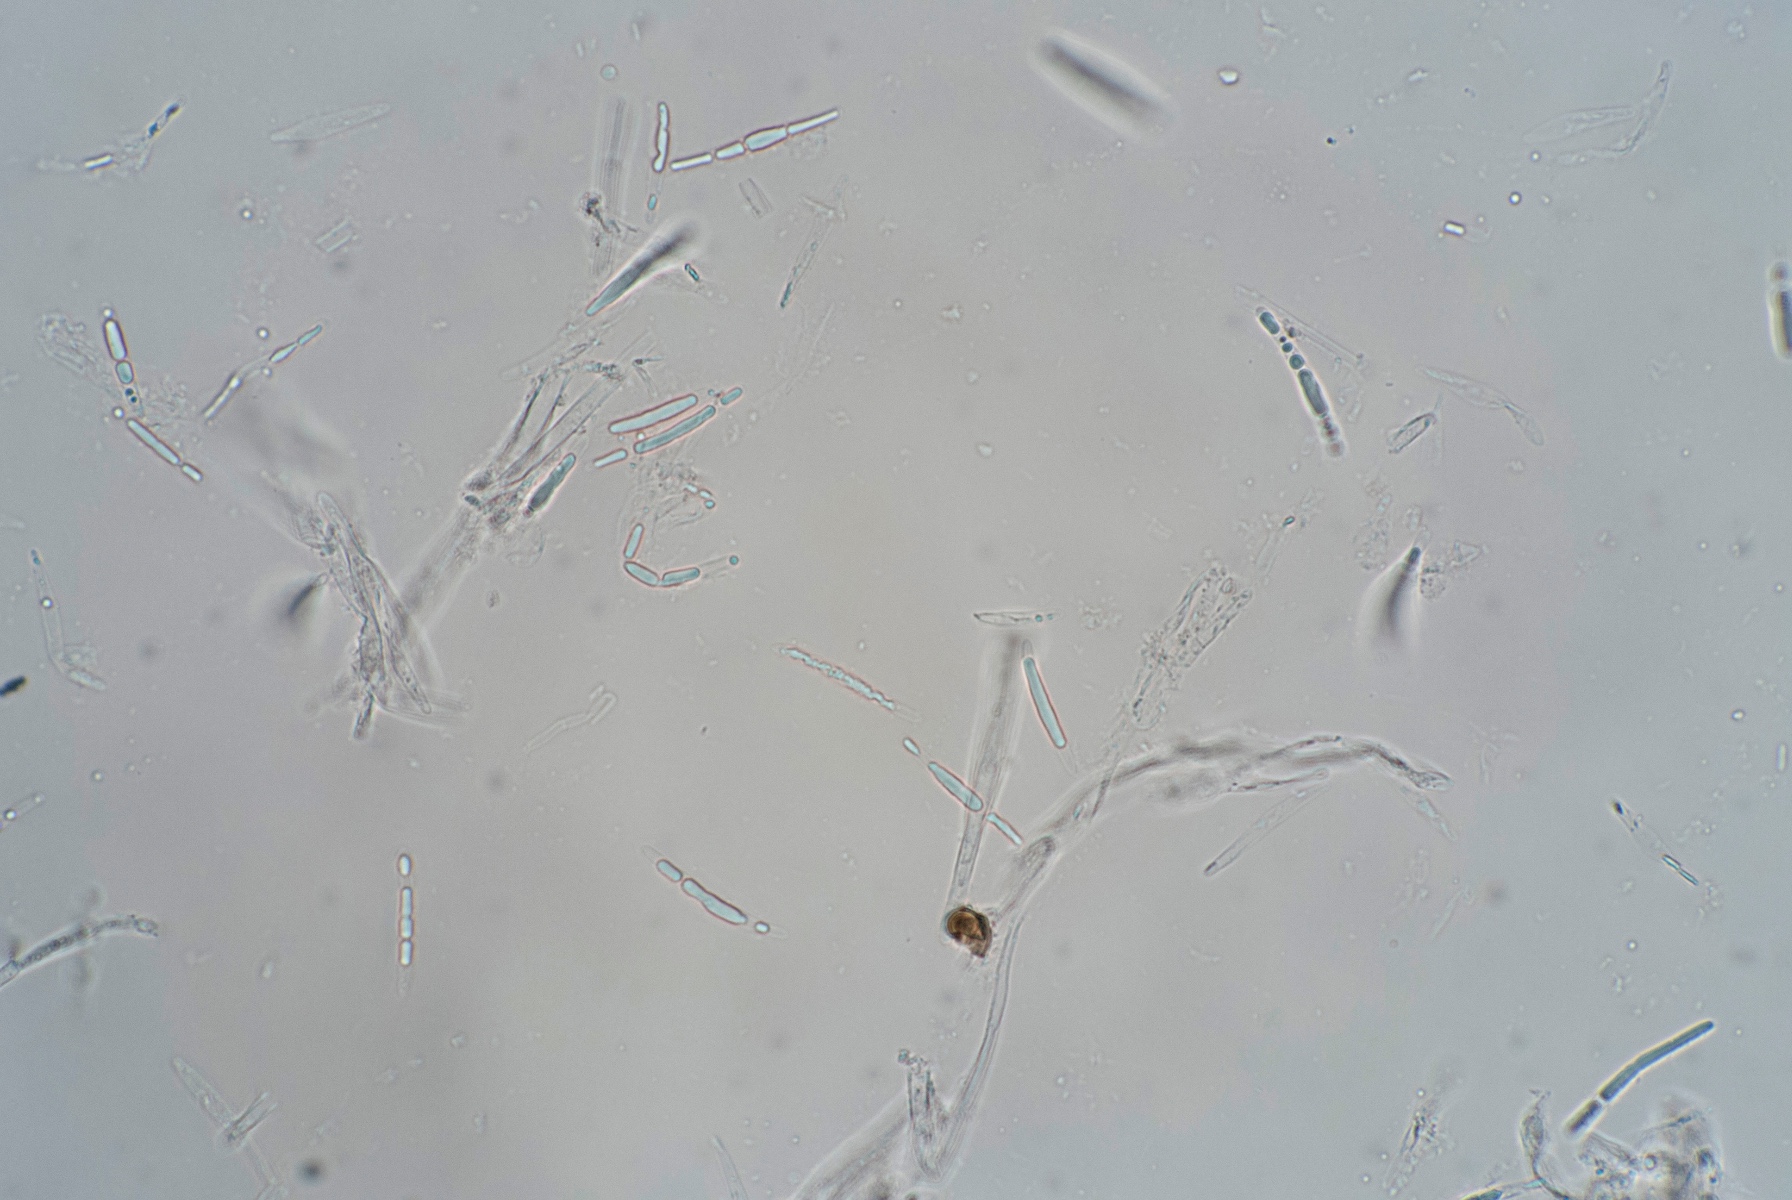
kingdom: Fungi
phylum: Ascomycota
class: Leotiomycetes
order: Helotiales
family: Lachnaceae
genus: Lachnum
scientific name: Lachnum sulphureum
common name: svovlhåret frynseskive
